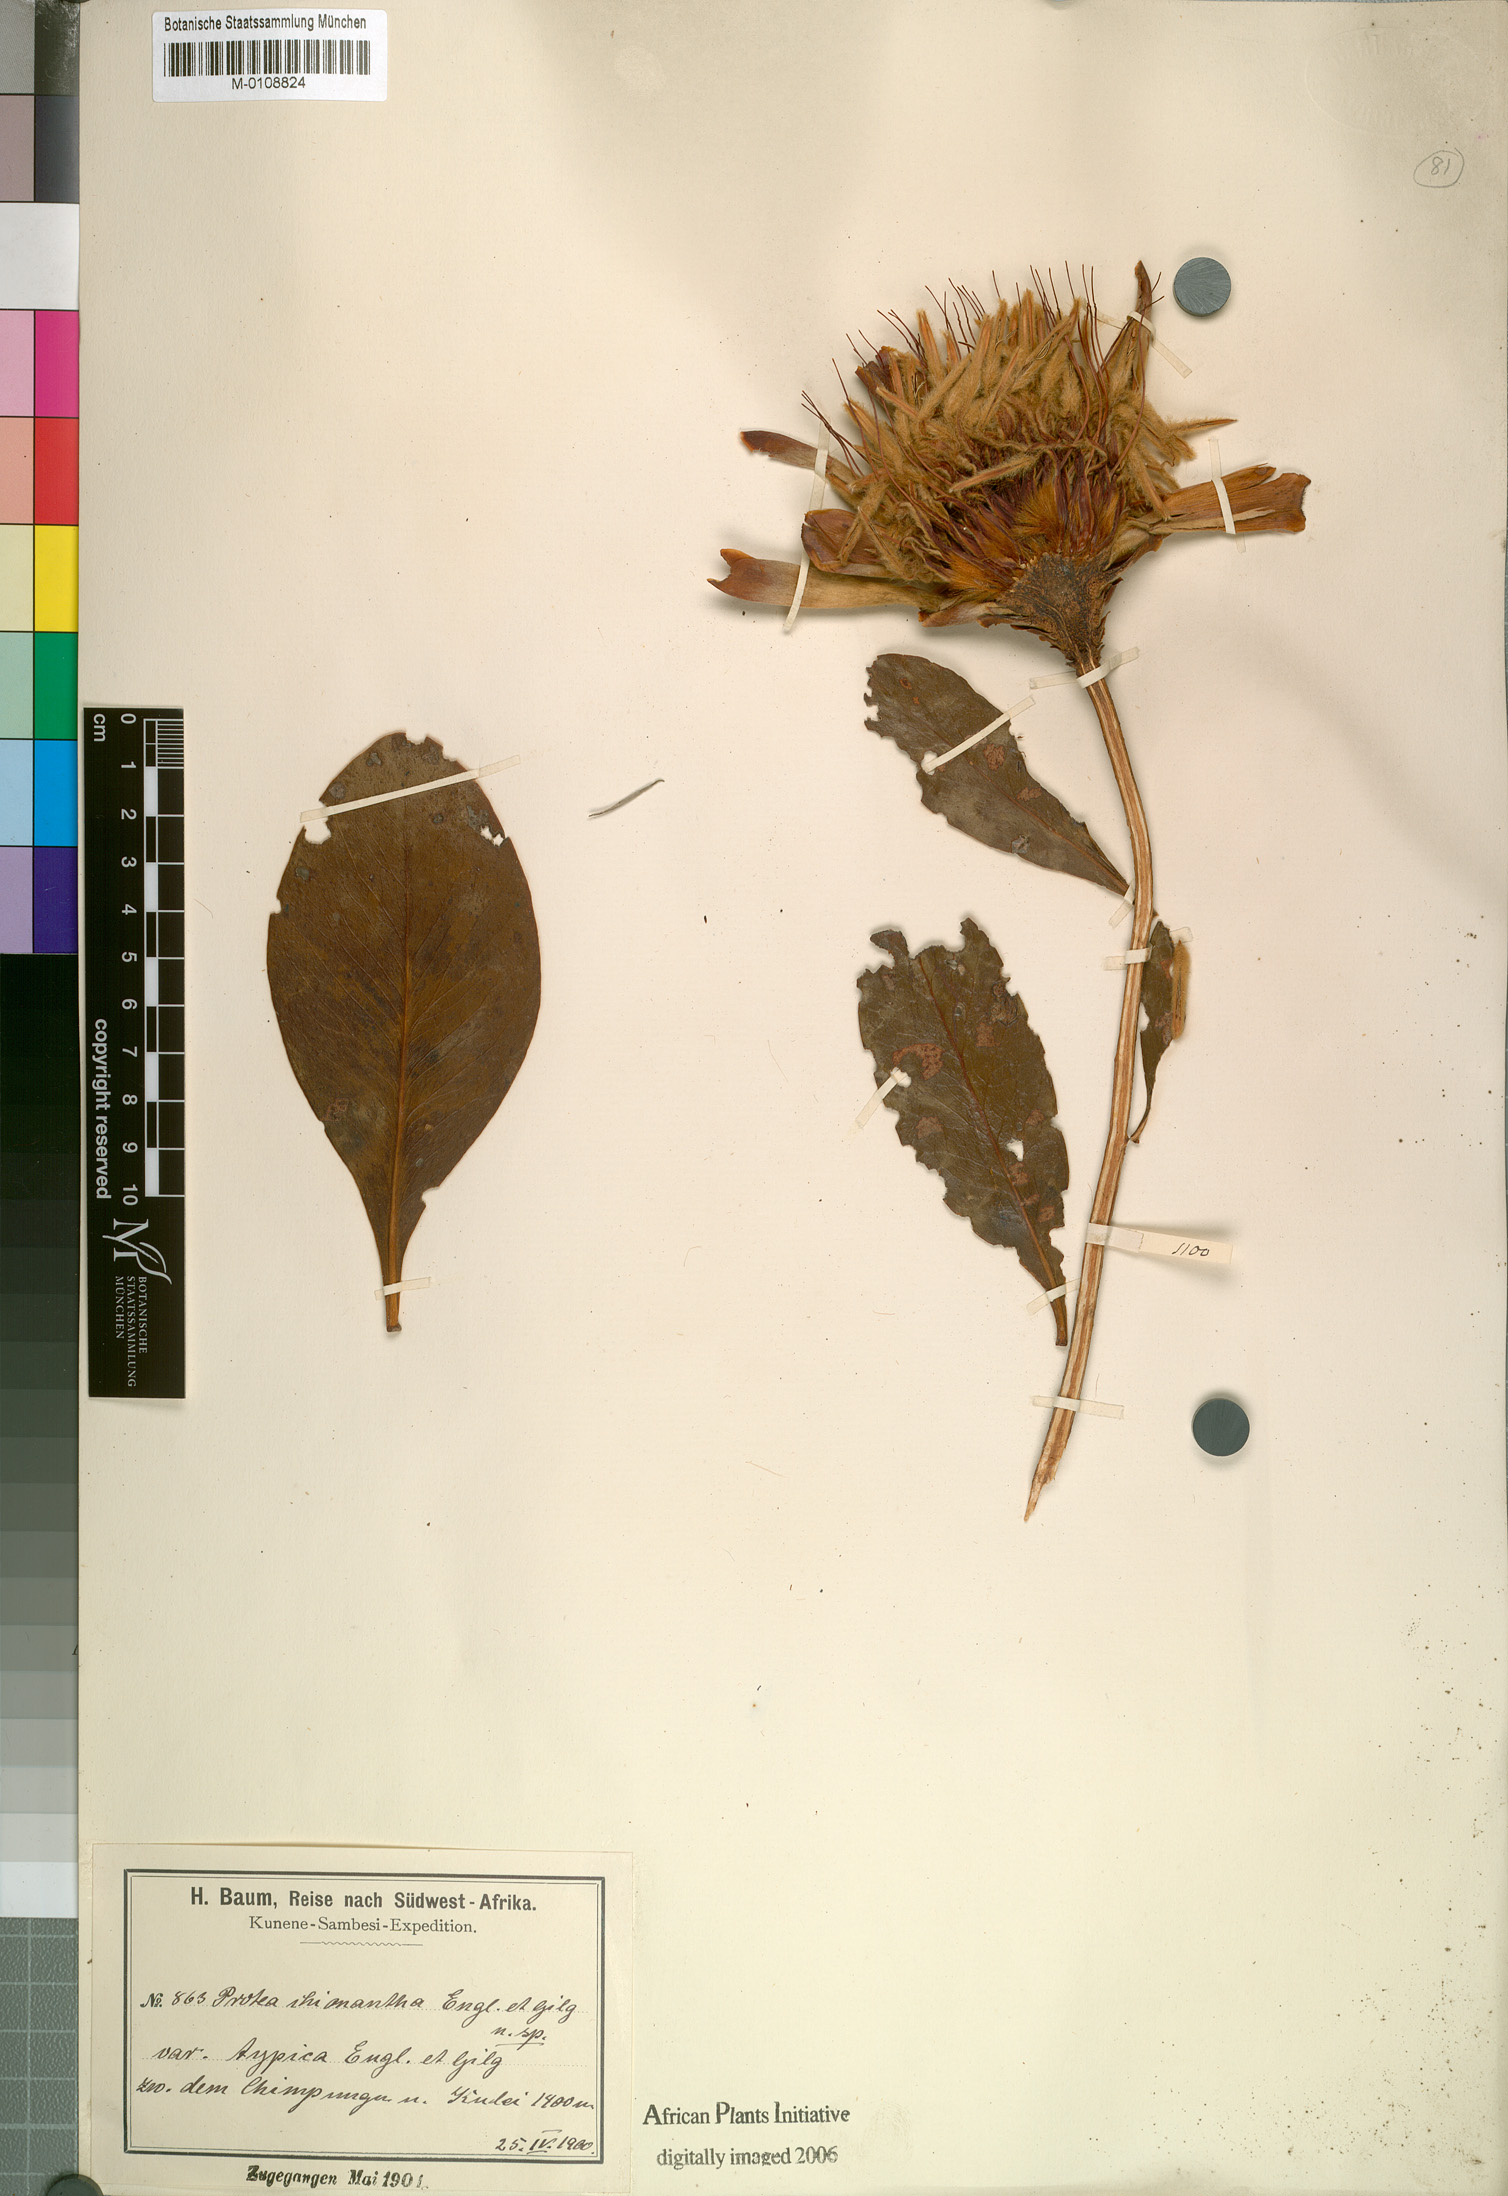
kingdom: Plantae
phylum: Tracheophyta
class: Magnoliopsida
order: Proteales
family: Proteaceae
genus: Protea
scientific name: Protea angolensis
